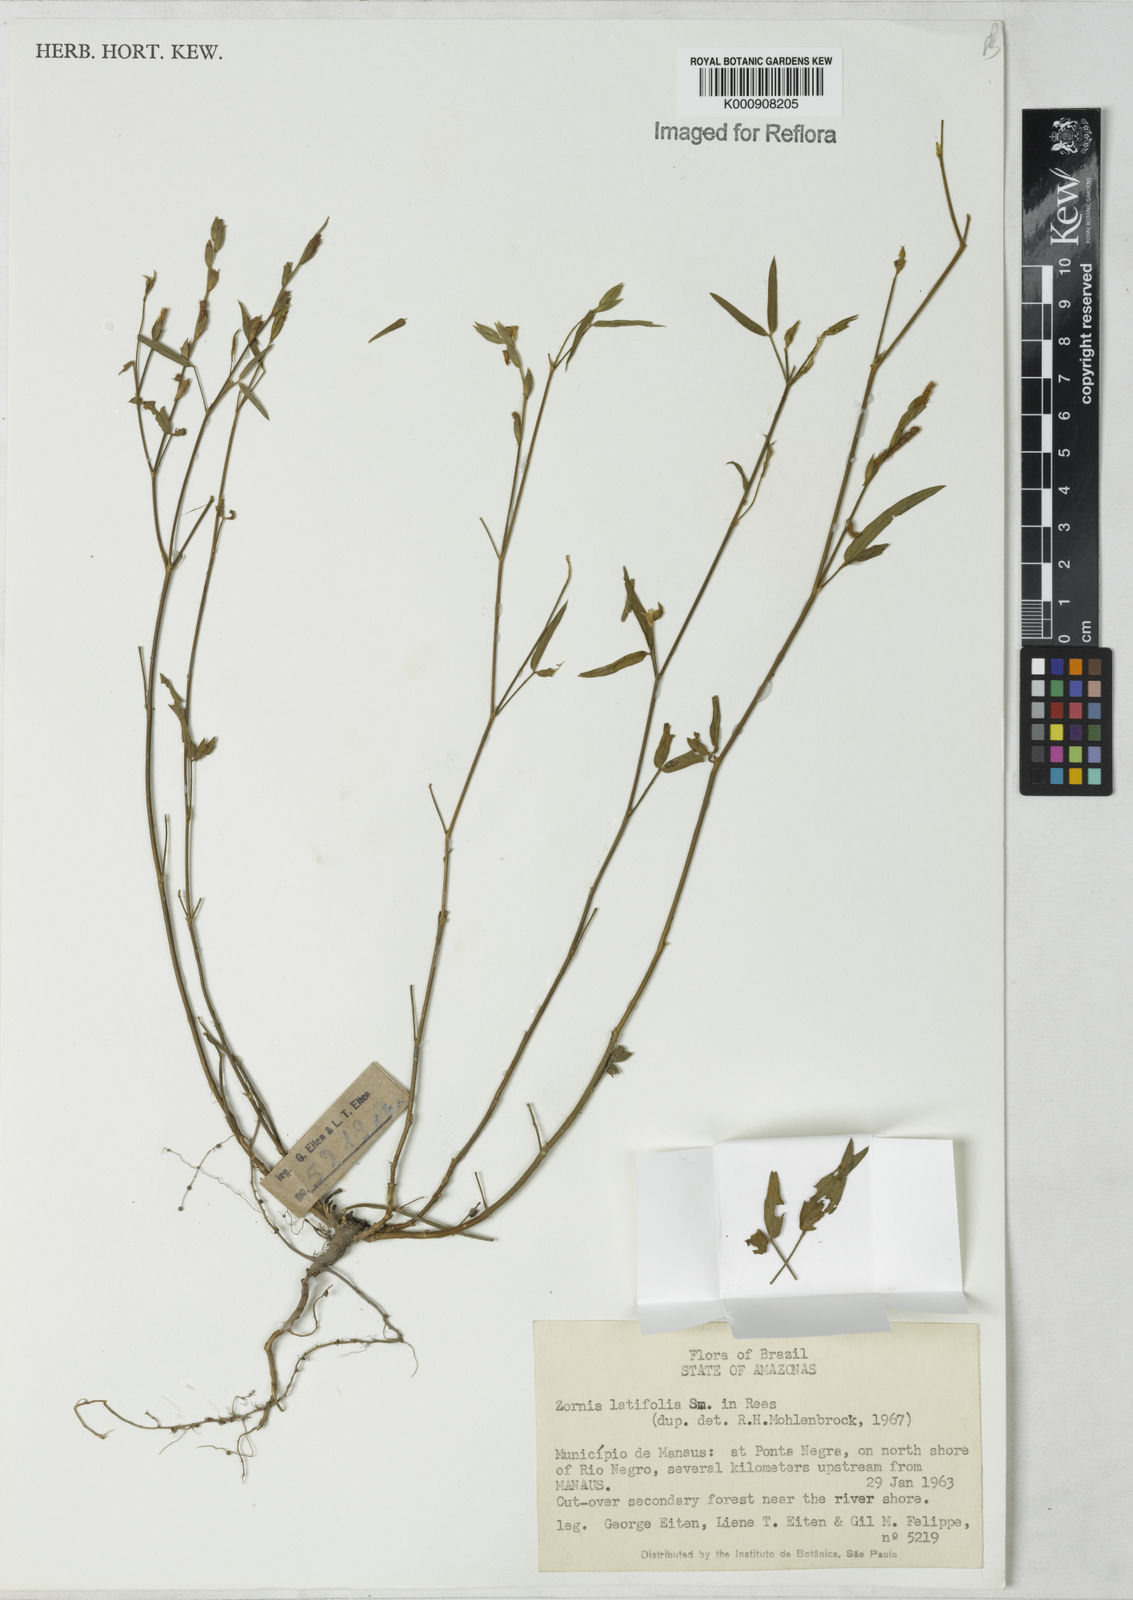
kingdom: Plantae
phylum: Tracheophyta
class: Magnoliopsida
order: Fabales
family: Fabaceae
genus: Zornia
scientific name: Zornia latifolia
